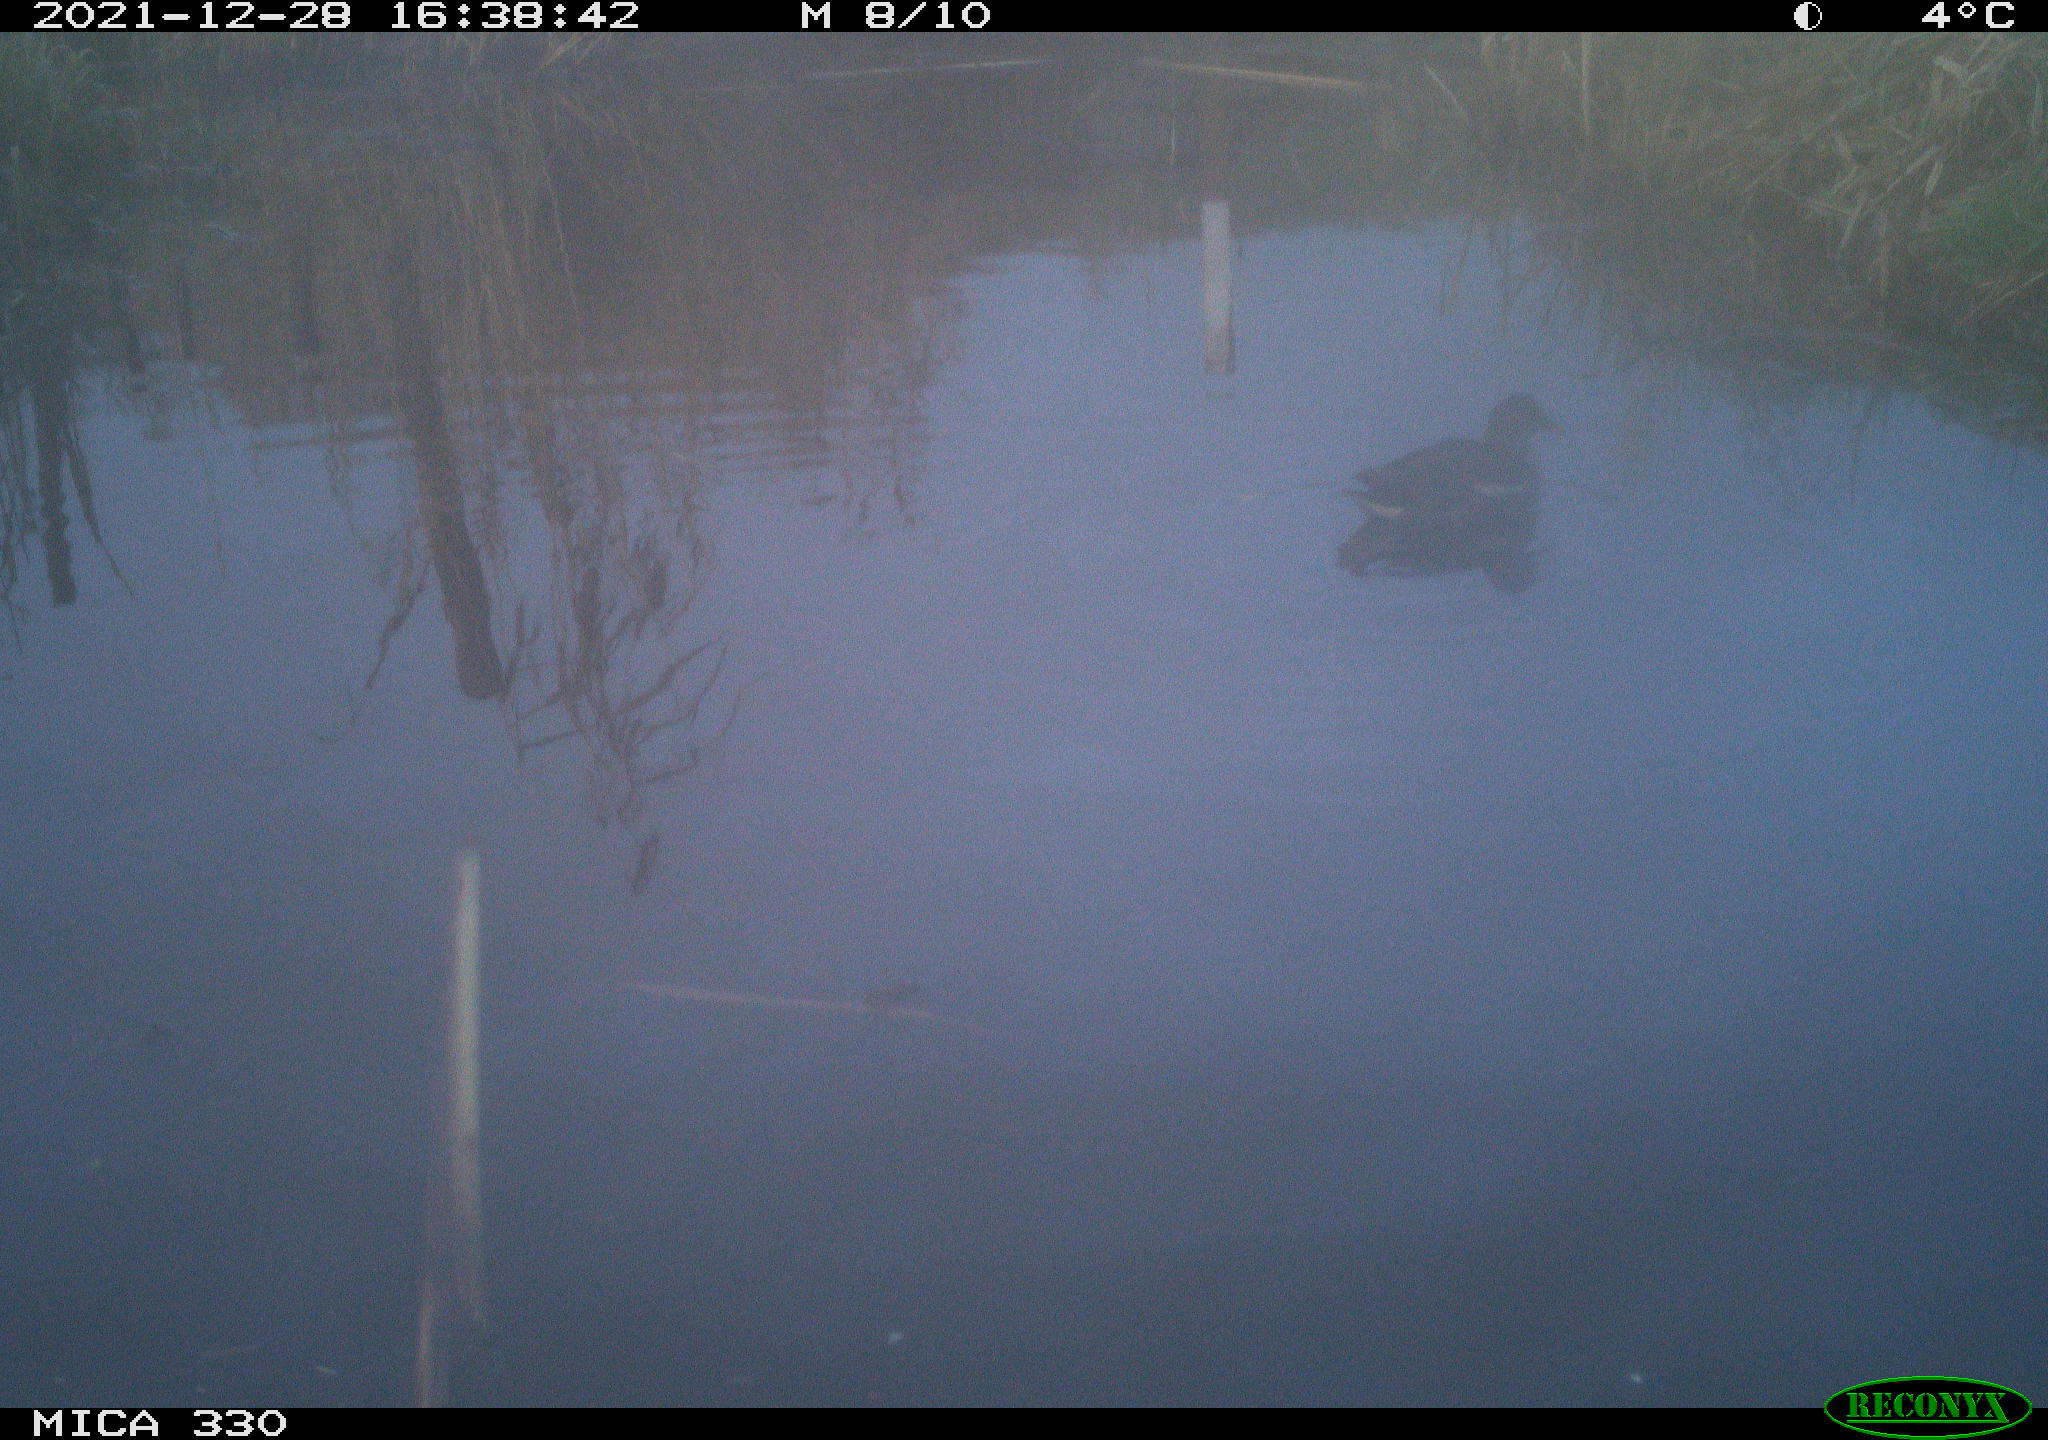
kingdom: Animalia
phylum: Chordata
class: Aves
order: Gruiformes
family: Rallidae
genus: Gallinula
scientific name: Gallinula chloropus
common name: Common moorhen
